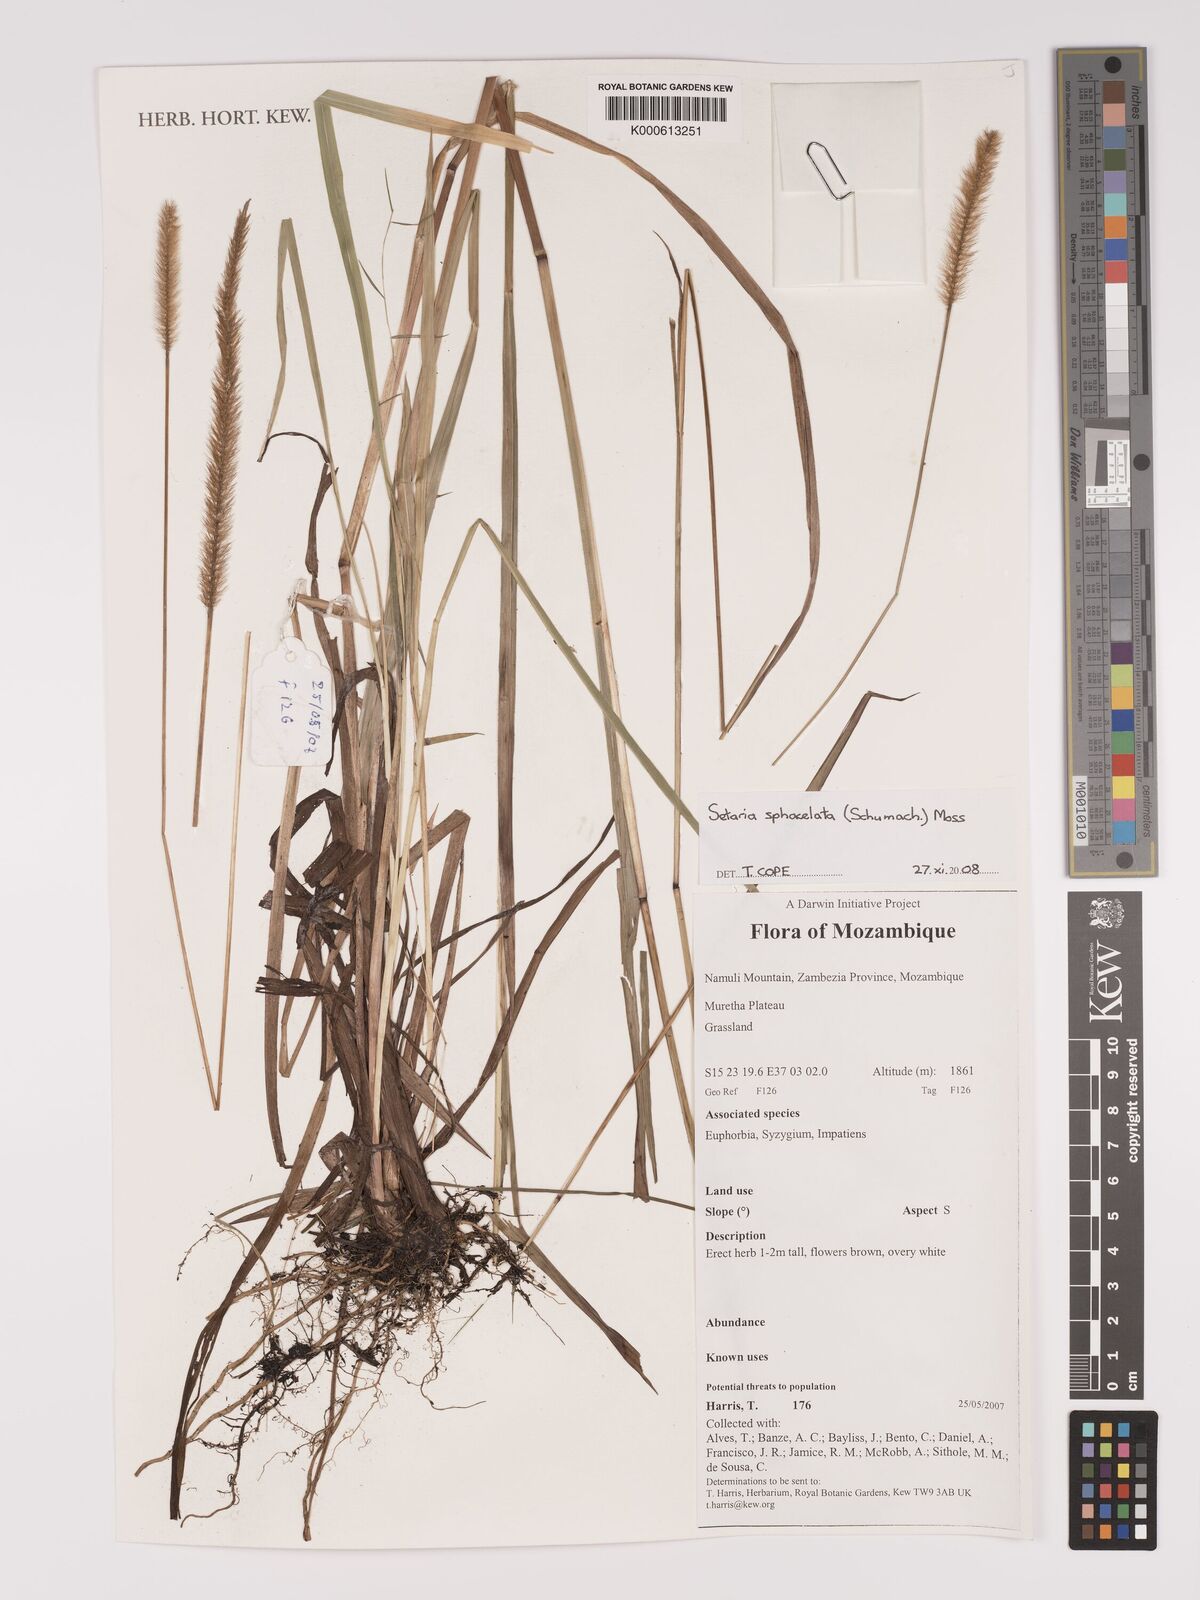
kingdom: Plantae
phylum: Tracheophyta
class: Liliopsida
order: Poales
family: Poaceae
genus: Setaria
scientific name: Setaria sphacelata
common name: African bristlegrass
